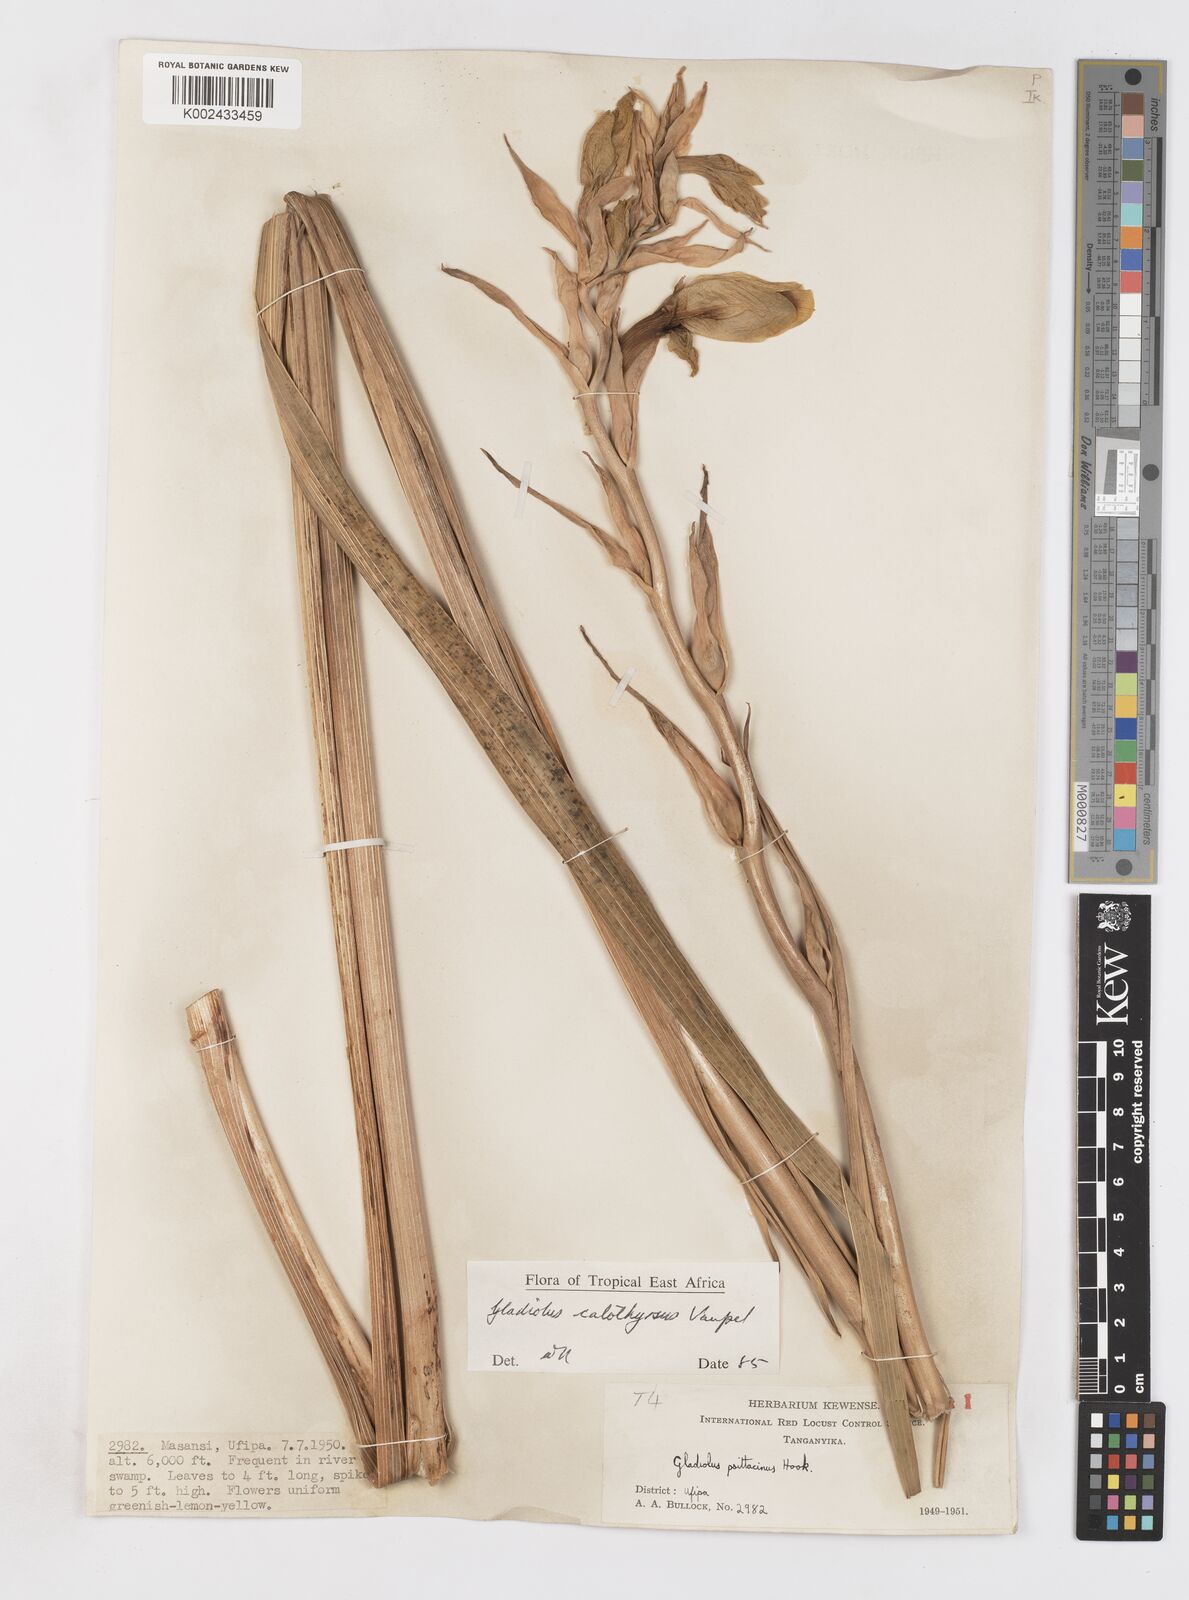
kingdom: Plantae
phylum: Tracheophyta
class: Liliopsida
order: Asparagales
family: Iridaceae
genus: Gladiolus
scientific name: Gladiolus dalenii
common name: Cornflag
